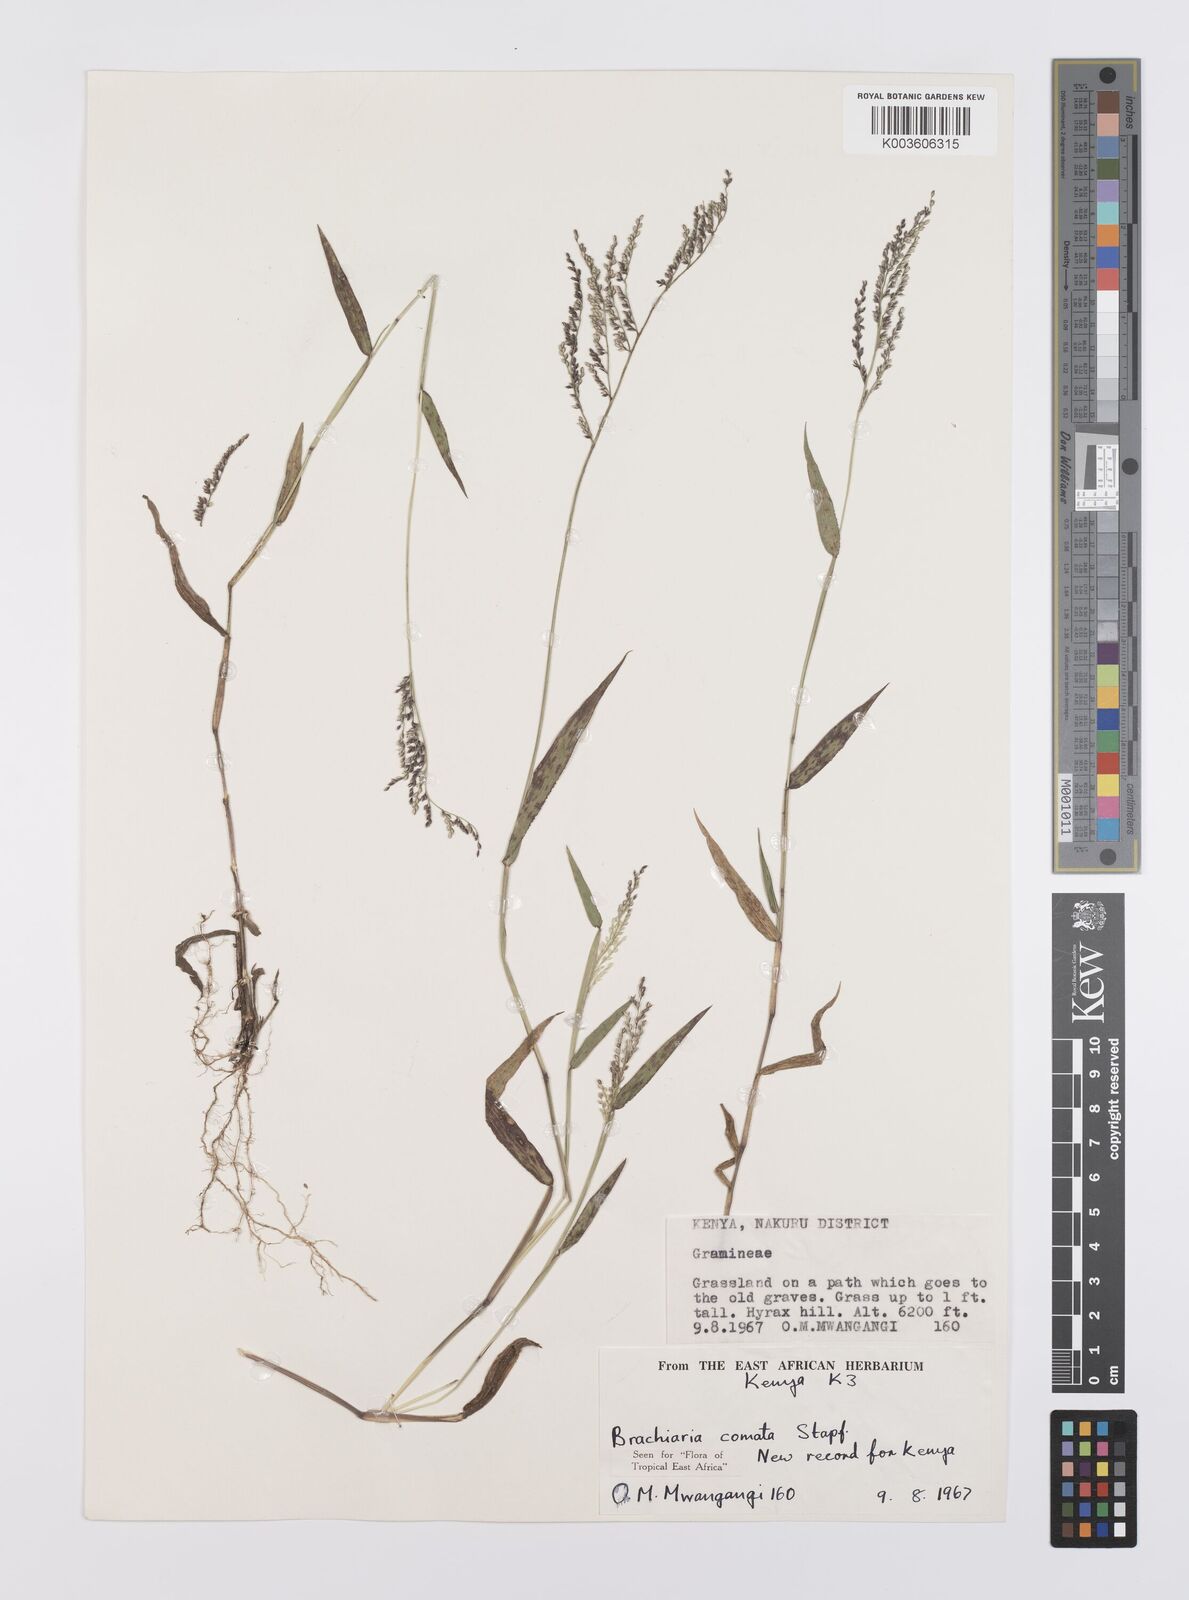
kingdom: Plantae
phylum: Tracheophyta
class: Liliopsida
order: Poales
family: Poaceae
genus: Urochloa
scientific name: Urochloa comata
